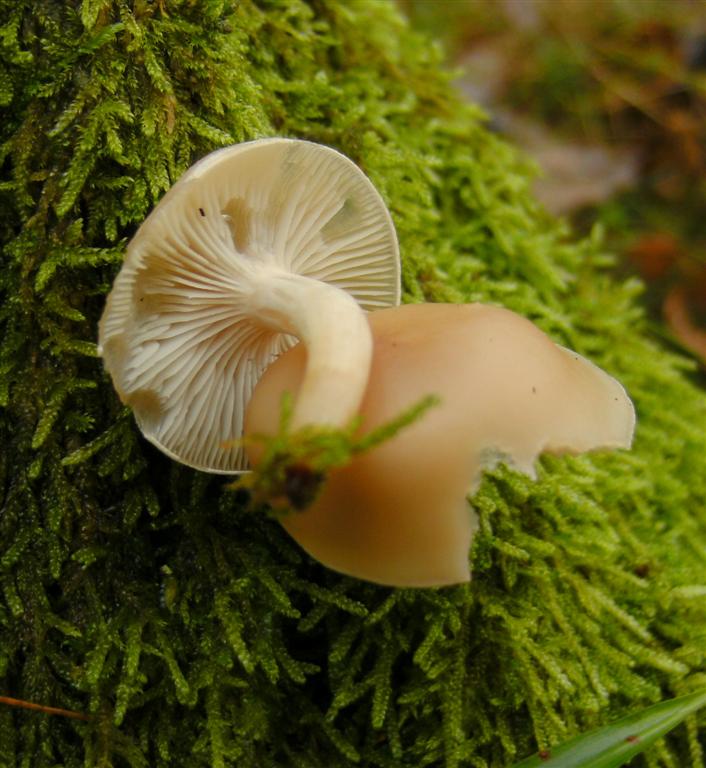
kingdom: Fungi
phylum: Basidiomycota
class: Agaricomycetes
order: Agaricales
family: Tricholomataceae
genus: Clitocybe
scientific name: Clitocybe diatreta
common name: kødfarvet tragthat
